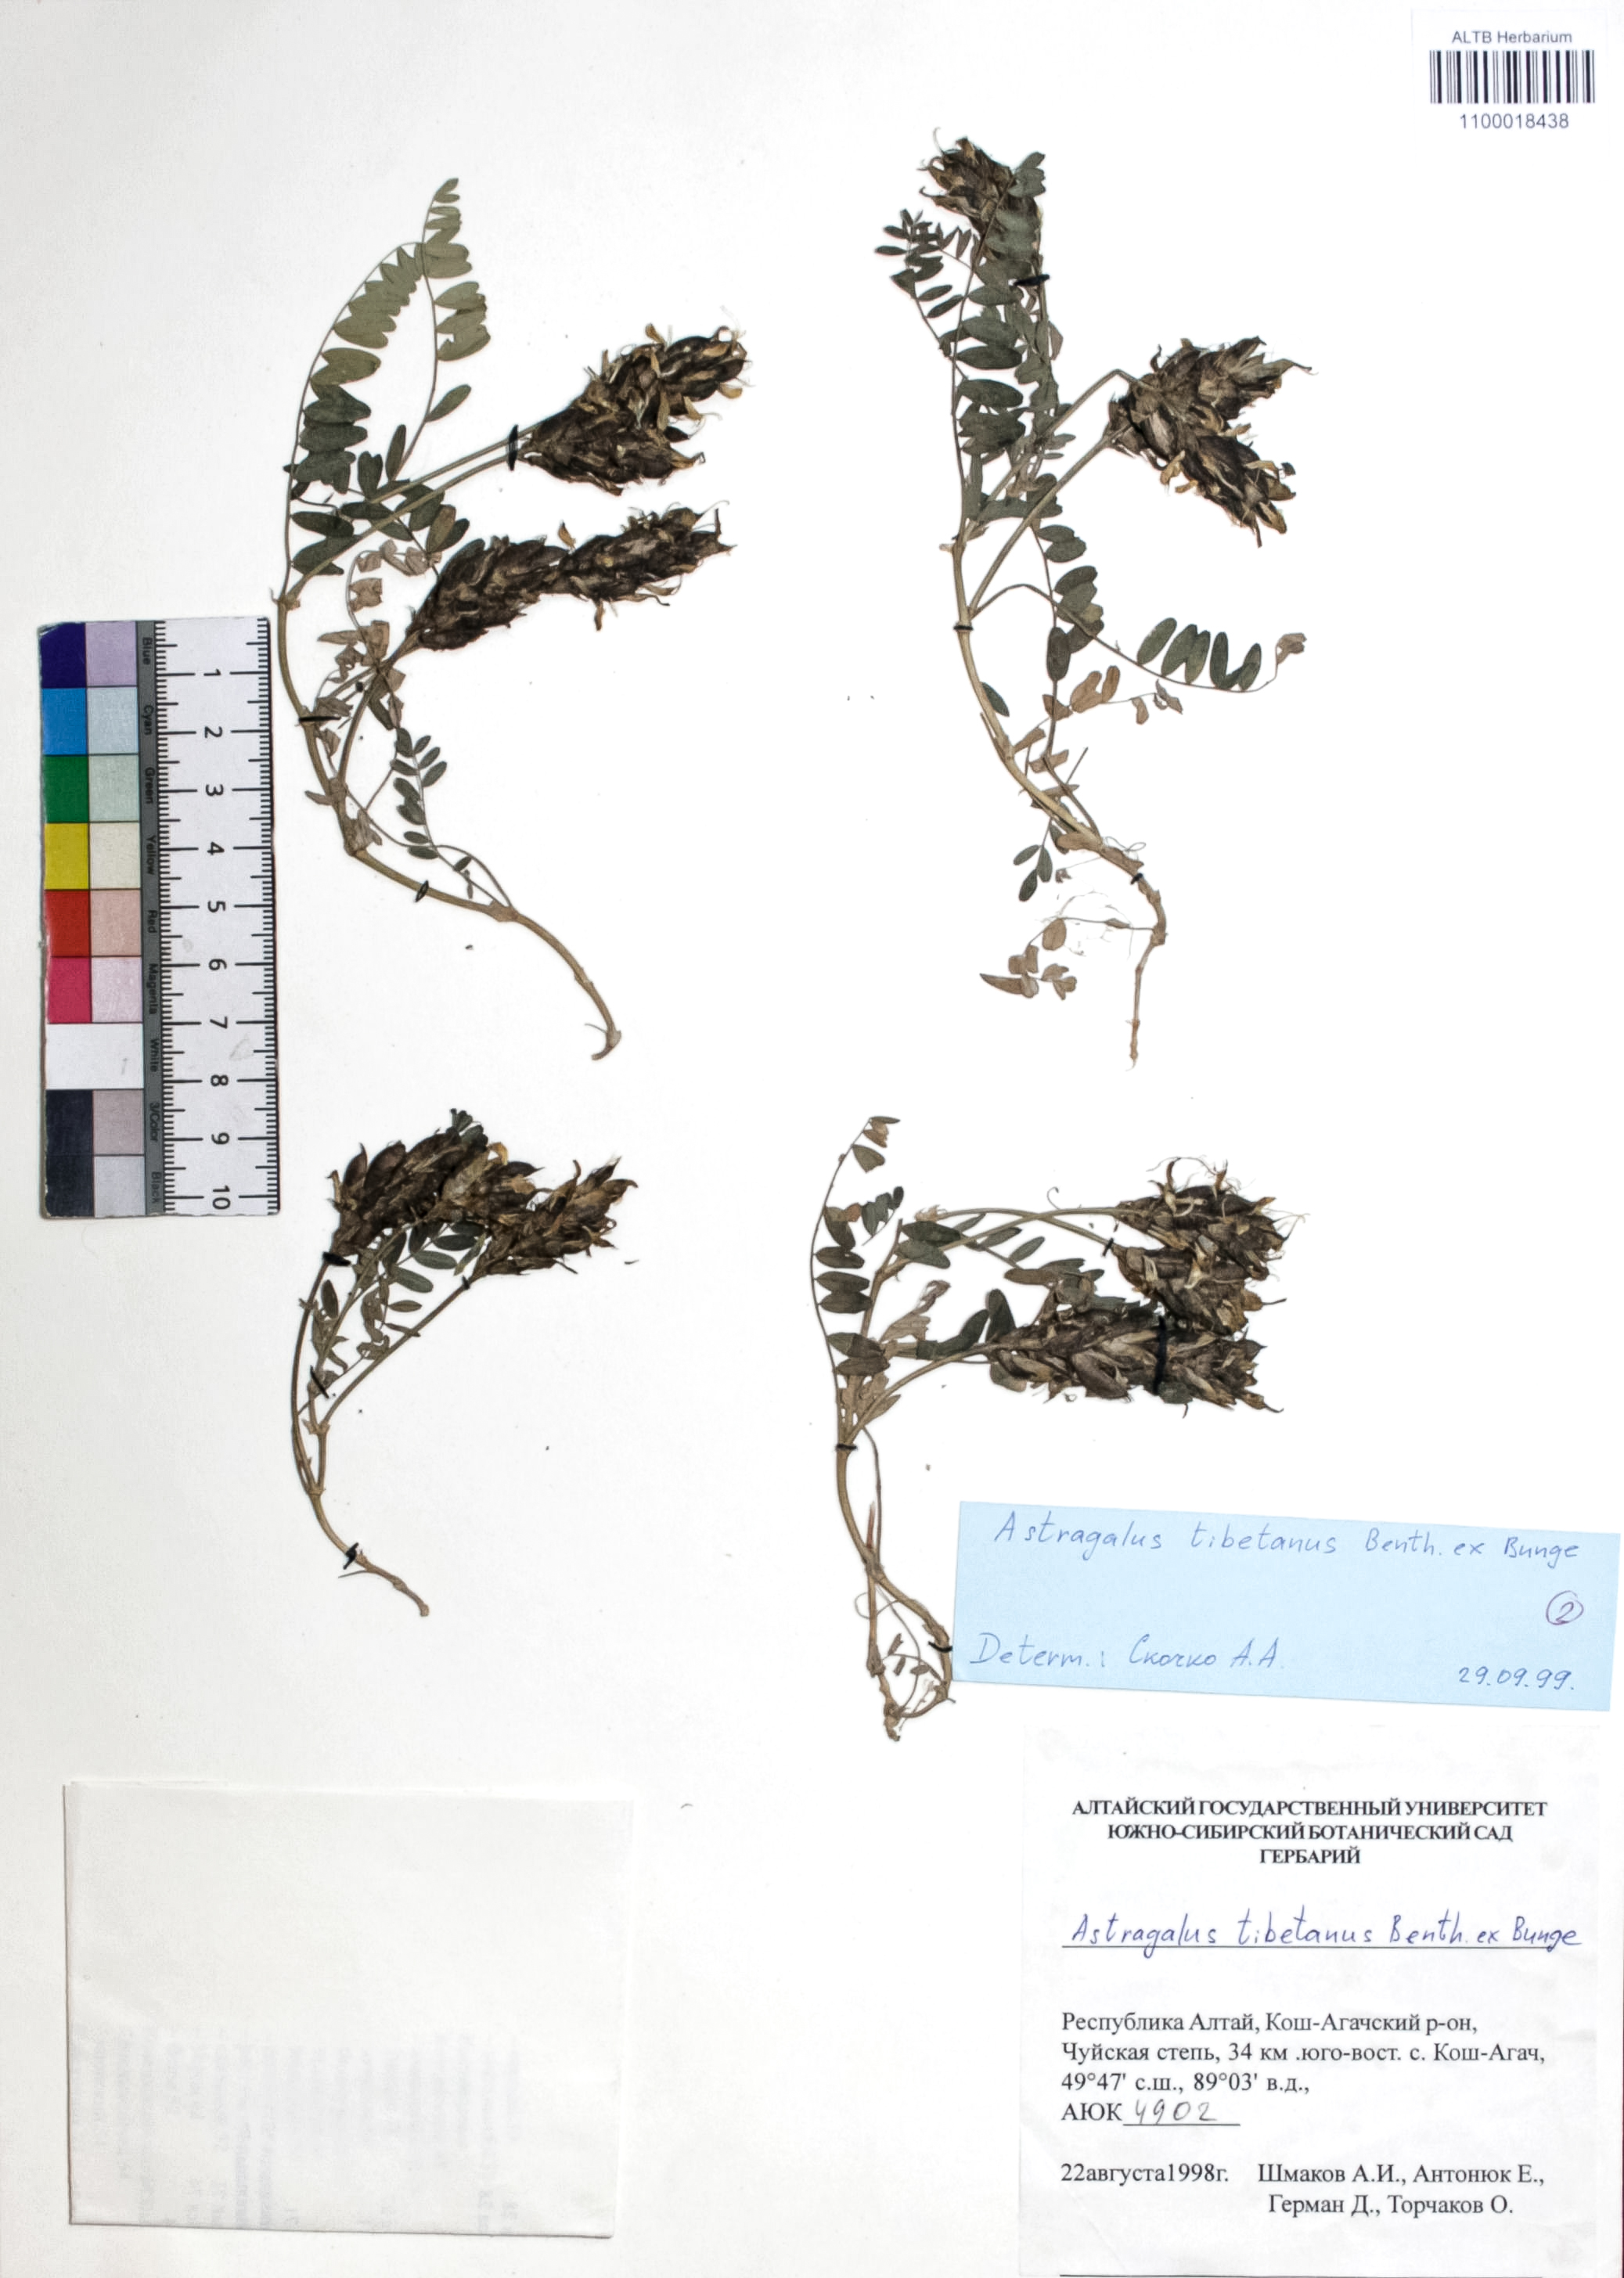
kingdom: Plantae
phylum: Tracheophyta
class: Magnoliopsida
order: Fabales
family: Fabaceae
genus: Astragalus
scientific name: Astragalus tibetanus
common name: Tibet milkvetch
